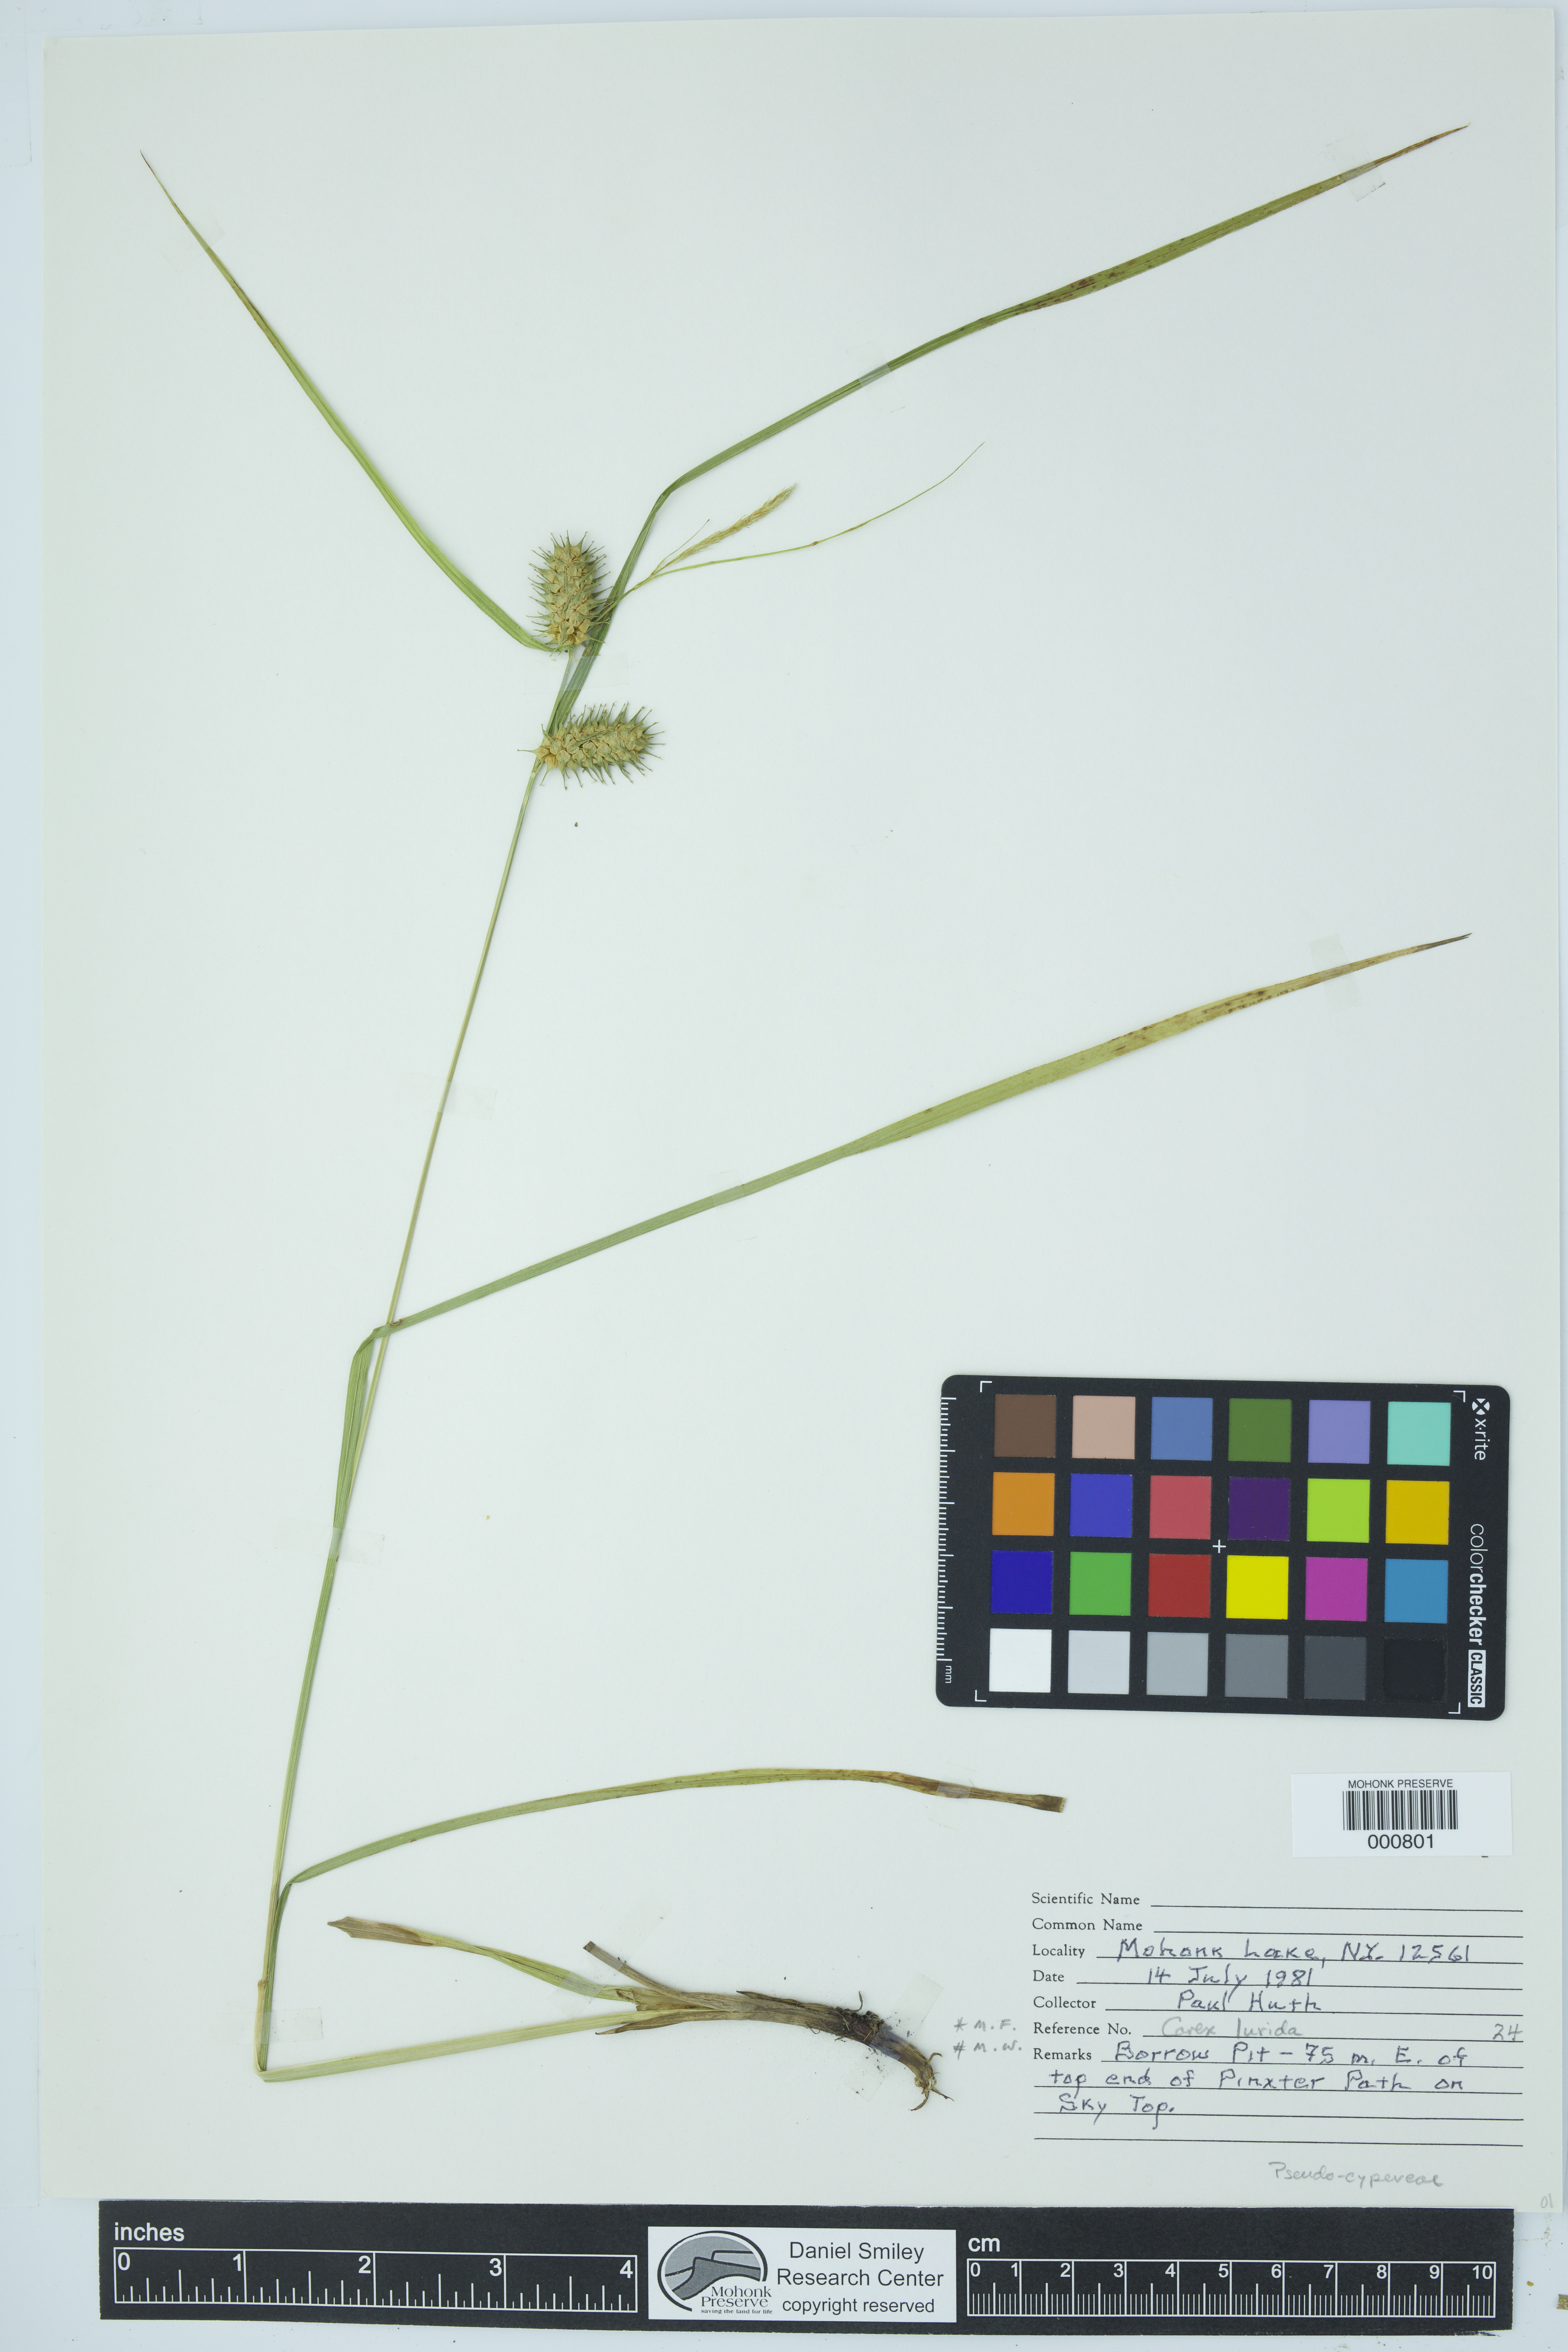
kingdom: Plantae
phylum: Tracheophyta
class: Liliopsida
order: Poales
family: Cyperaceae
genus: Carex
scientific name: Carex lurida
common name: Sallow sedge
